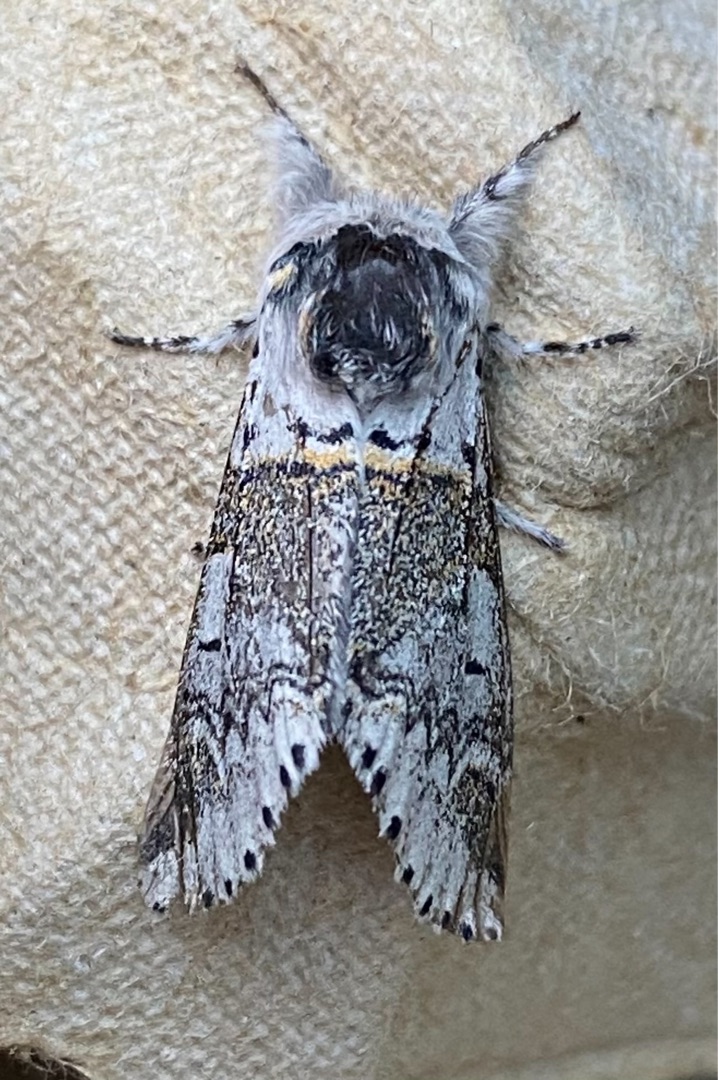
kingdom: Animalia
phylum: Arthropoda
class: Insecta
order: Lepidoptera
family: Notodontidae
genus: Furcula
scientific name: Furcula furcula
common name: Pilegaffelhale
